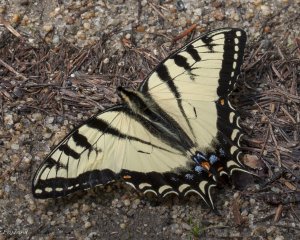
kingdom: Animalia
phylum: Arthropoda
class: Insecta
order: Lepidoptera
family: Papilionidae
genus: Pterourus
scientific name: Pterourus canadensis
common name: Canadian Tiger Swallowtail
